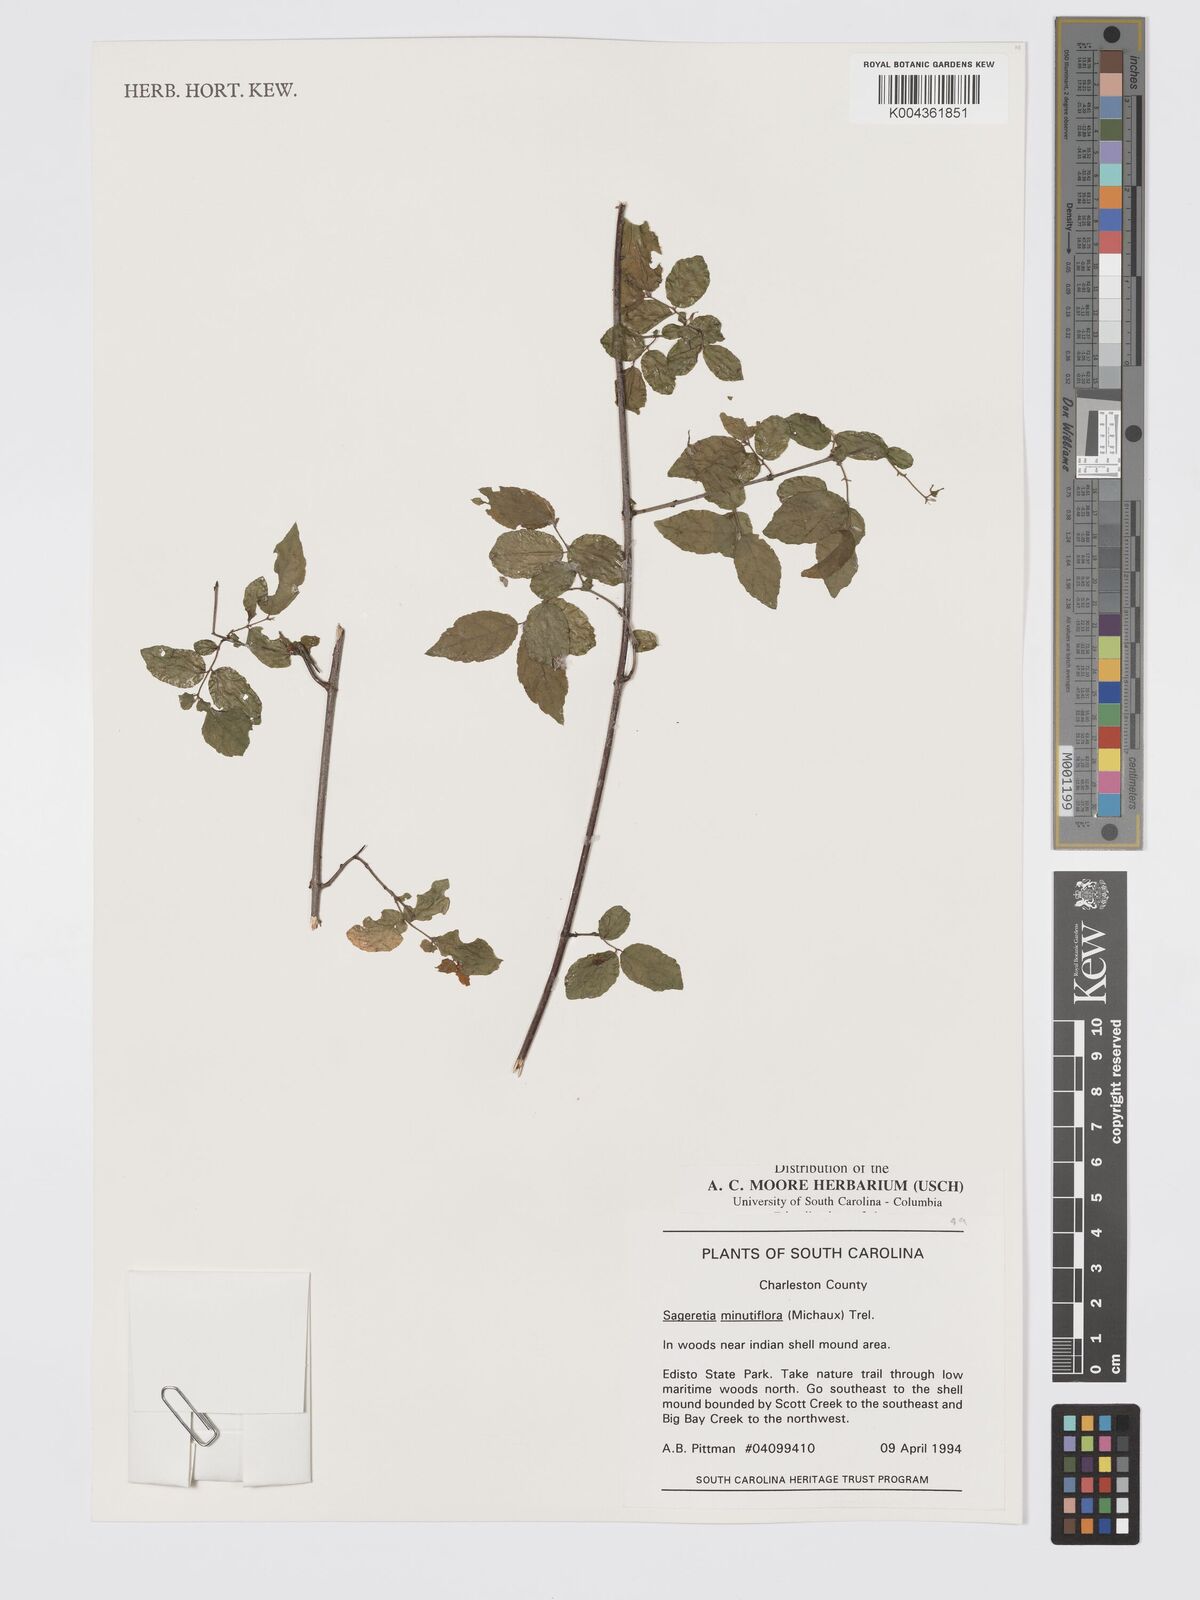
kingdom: Plantae
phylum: Tracheophyta
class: Magnoliopsida
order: Rosales
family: Rhamnaceae
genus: Sageretia
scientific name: Sageretia minutiflora
